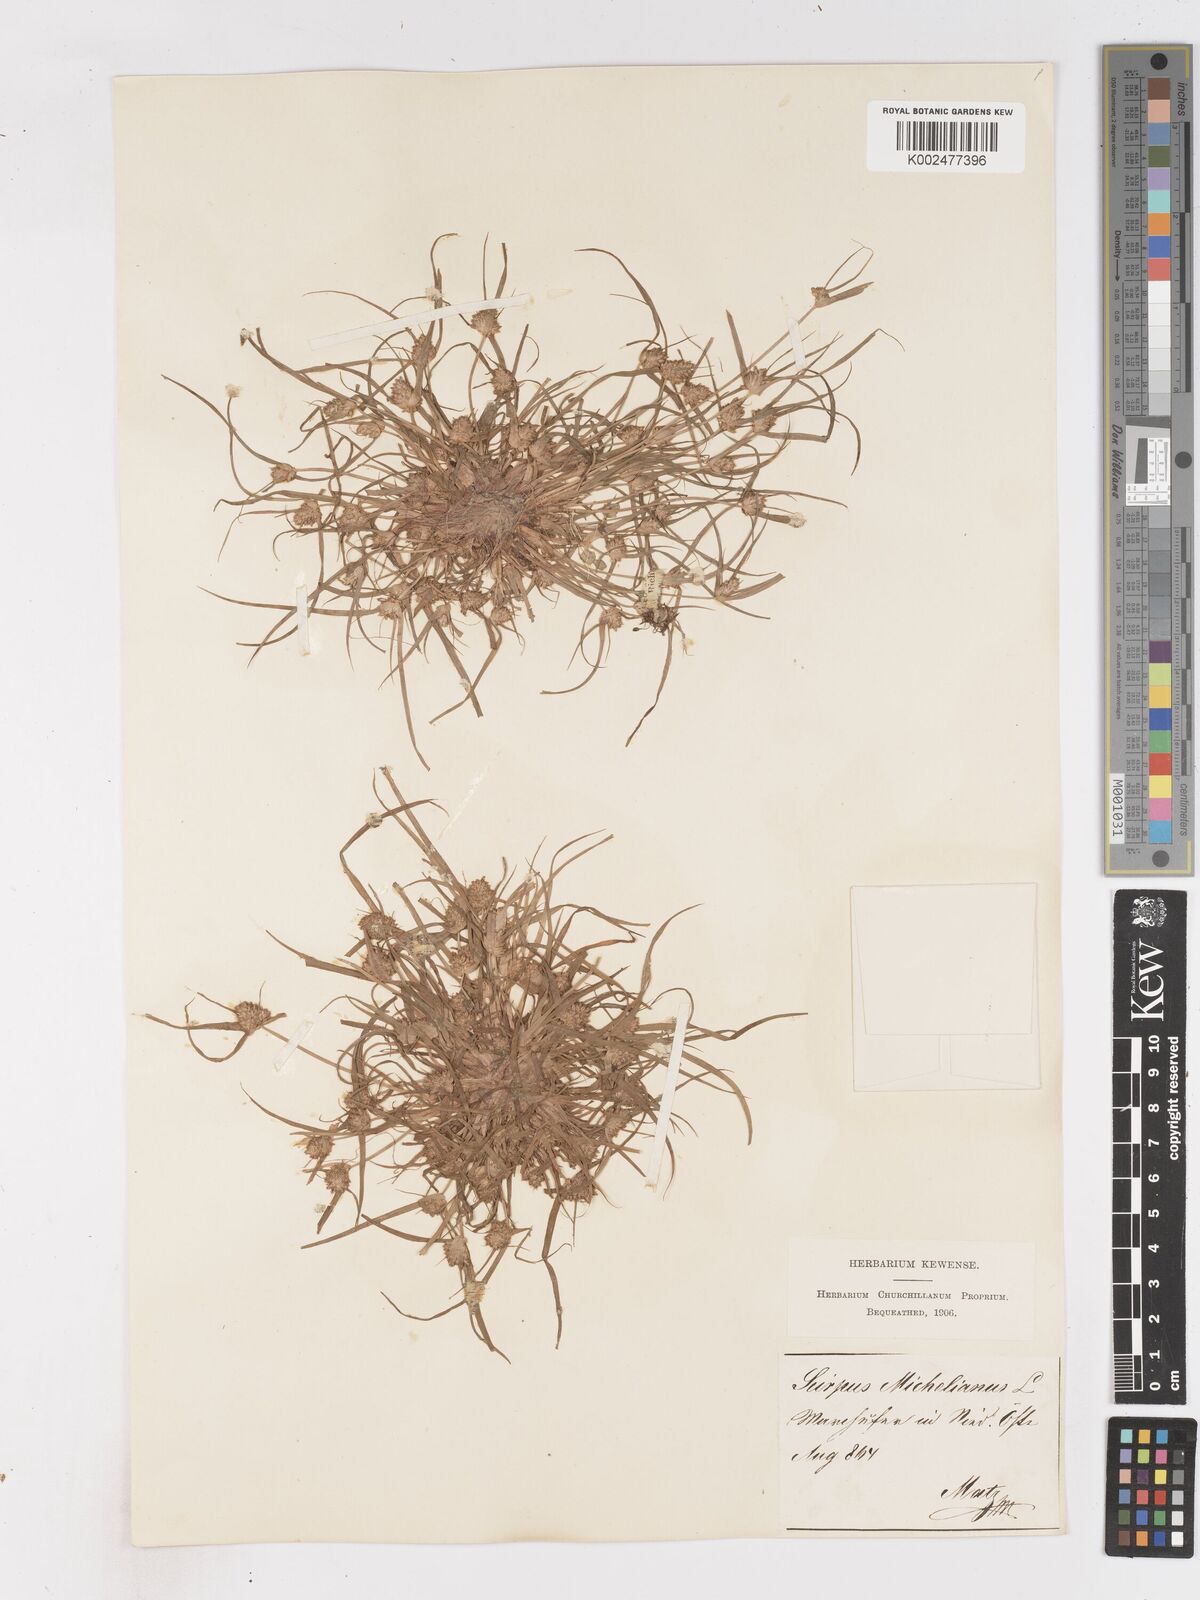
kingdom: Plantae
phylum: Tracheophyta
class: Liliopsida
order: Poales
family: Cyperaceae
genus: Cyperus
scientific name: Cyperus michelianus
